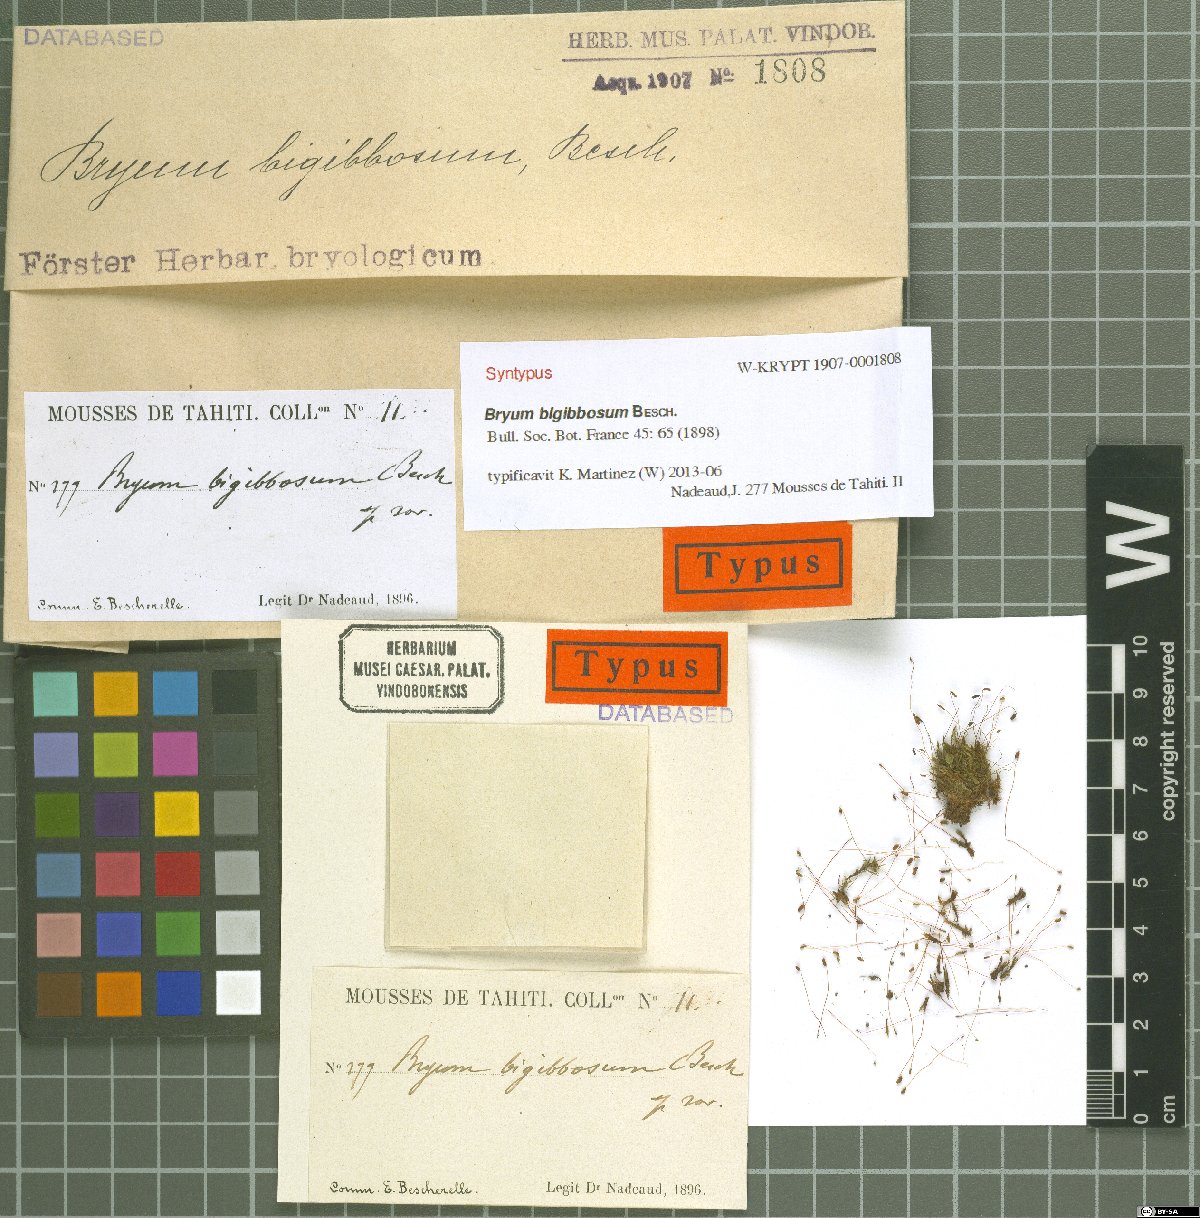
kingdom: Plantae
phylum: Bryophyta
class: Bryopsida
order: Bryales
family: Bryaceae
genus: Gemmabryum
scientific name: Gemmabryum coronatum
